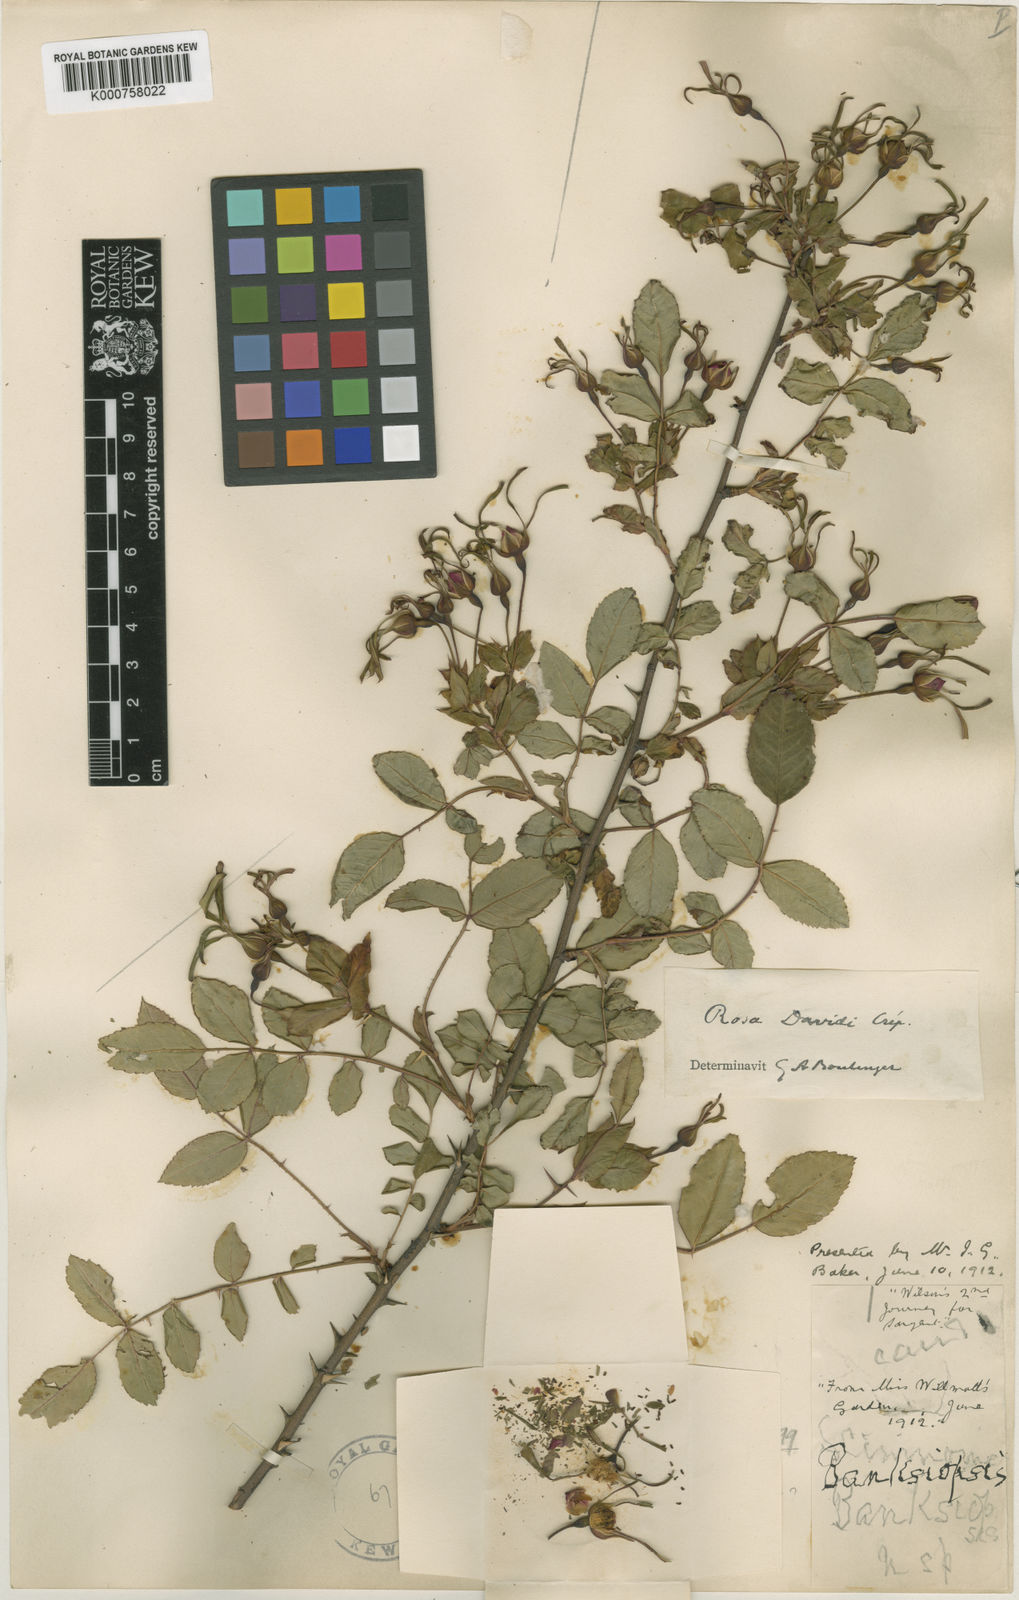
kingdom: Plantae
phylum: Tracheophyta
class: Magnoliopsida
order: Rosales
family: Rosaceae
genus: Rosa
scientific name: Rosa banksiopsis
